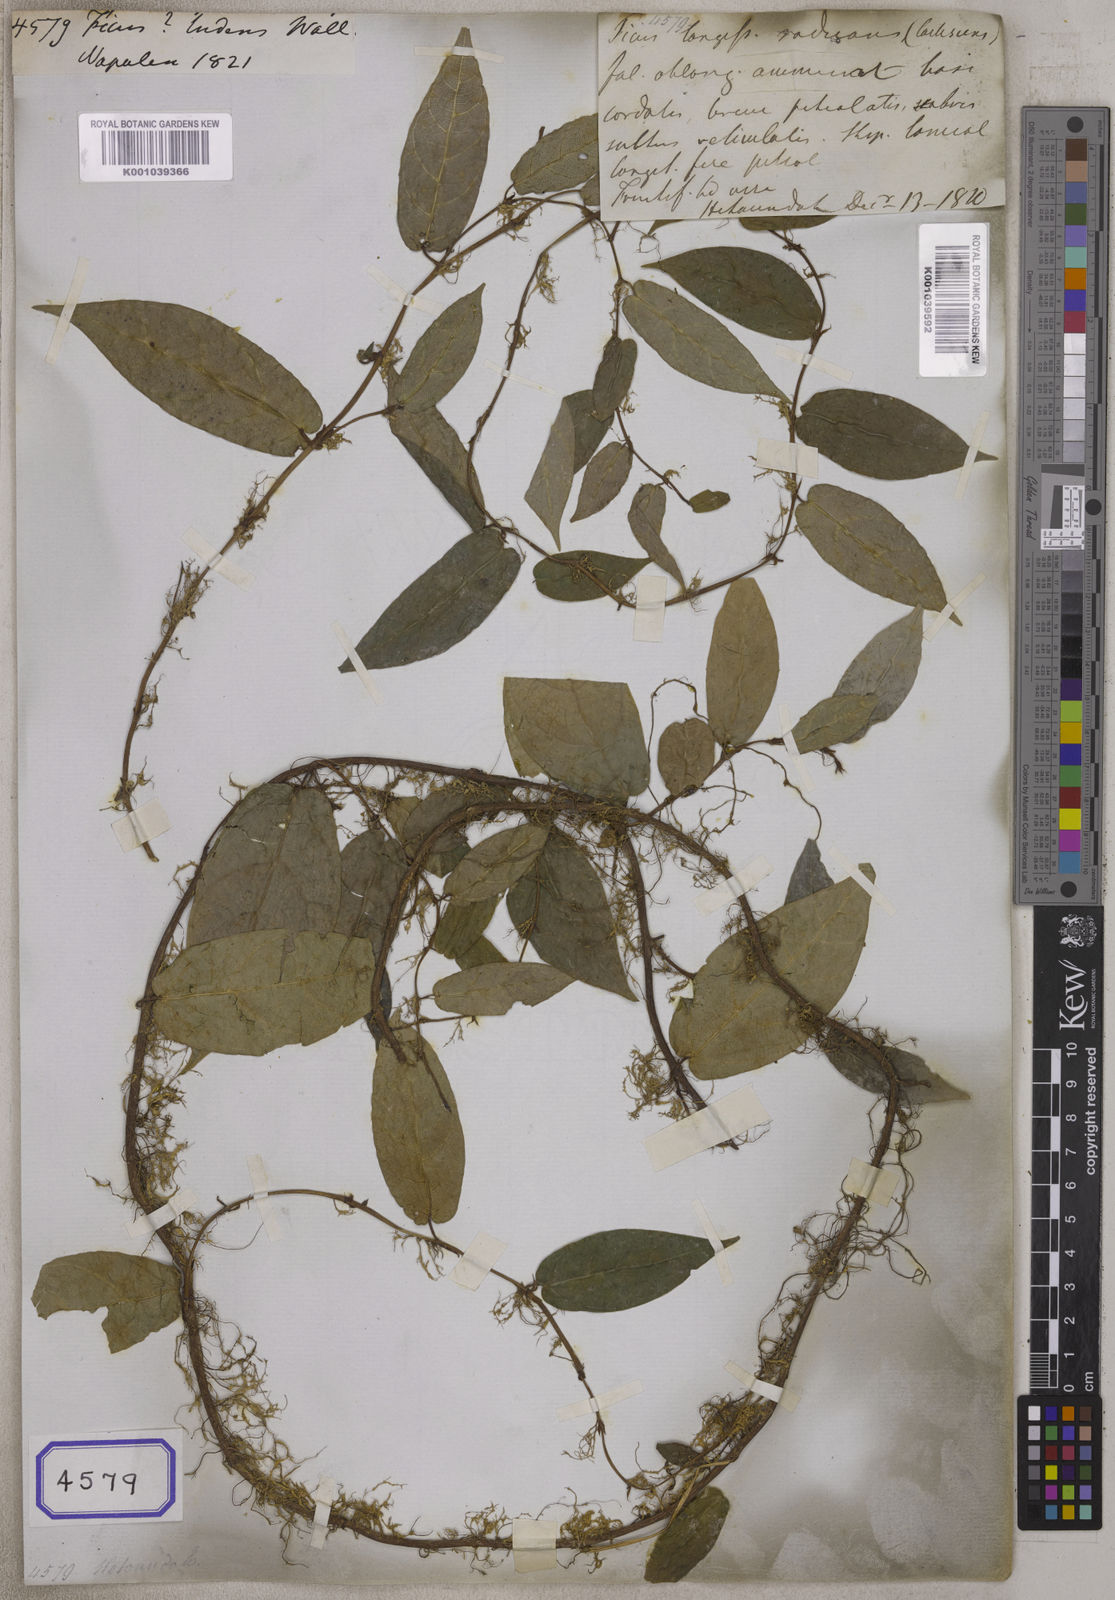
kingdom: Plantae
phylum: Tracheophyta
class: Magnoliopsida
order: Rosales
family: Moraceae
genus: Ficus
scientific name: Ficus hederacea
